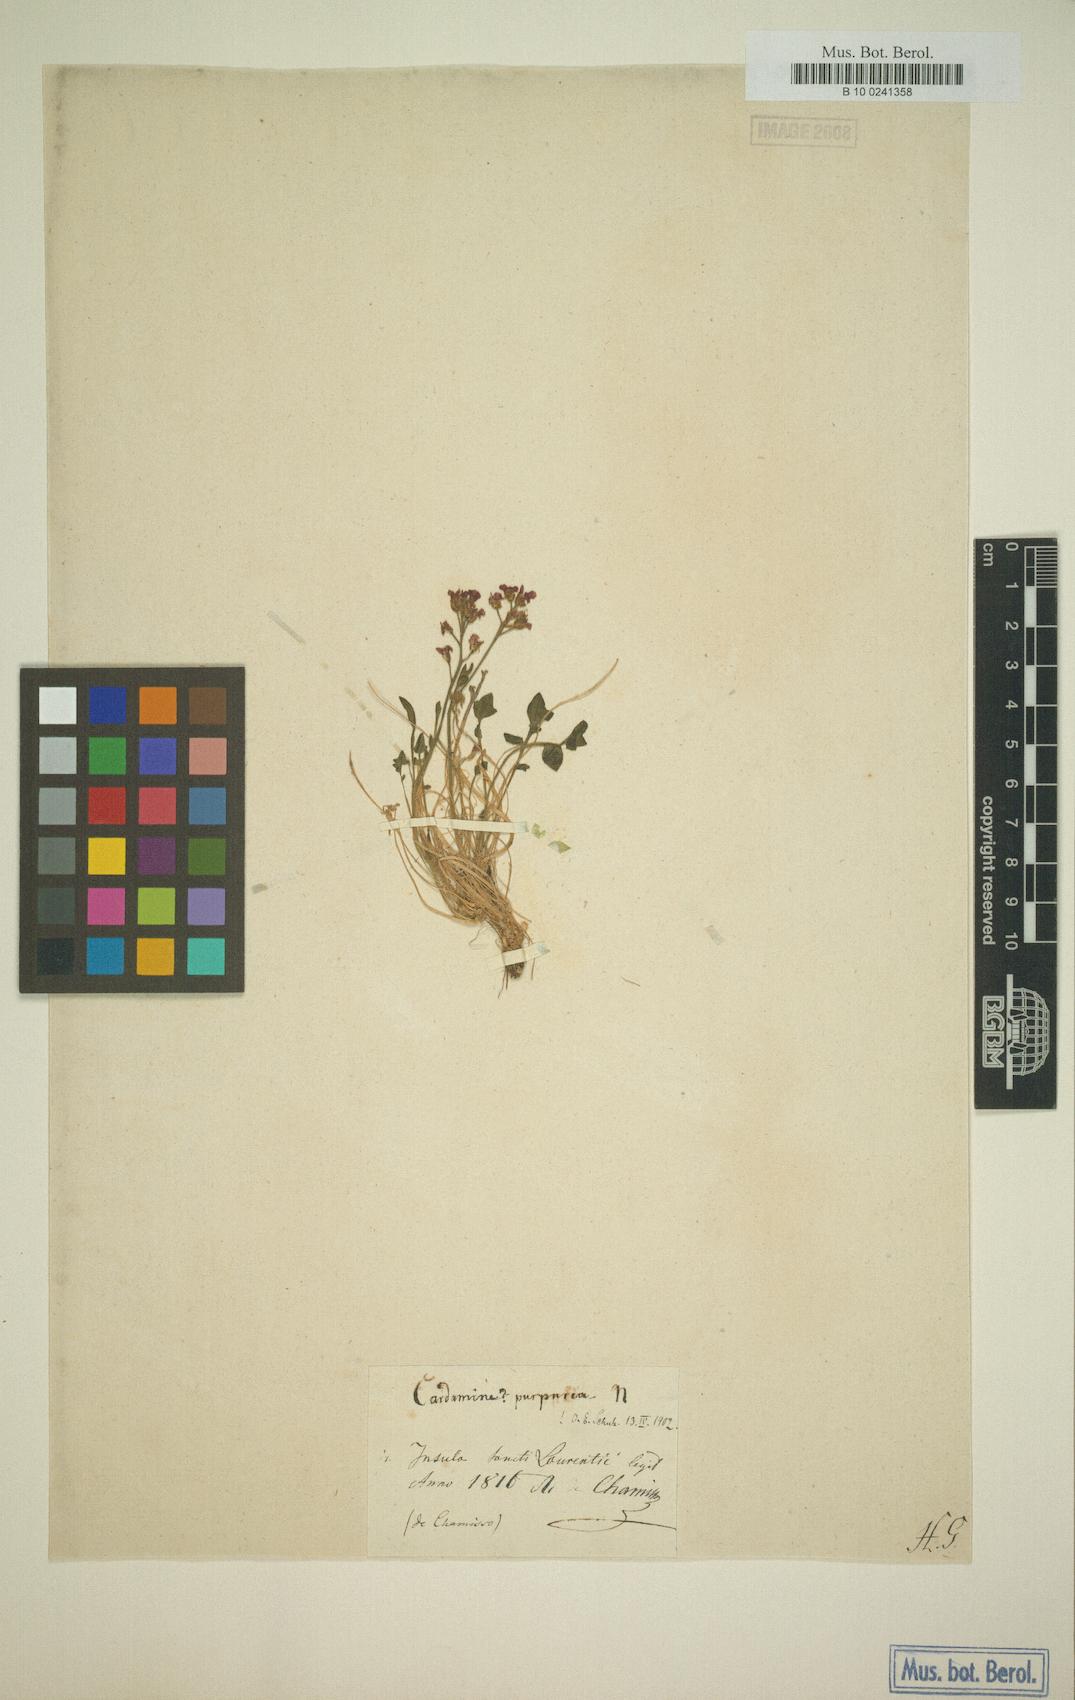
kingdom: Plantae
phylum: Tracheophyta
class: Magnoliopsida
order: Brassicales
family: Brassicaceae
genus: Cardamine
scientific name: Cardamine purpurea
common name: Purple bittercress
